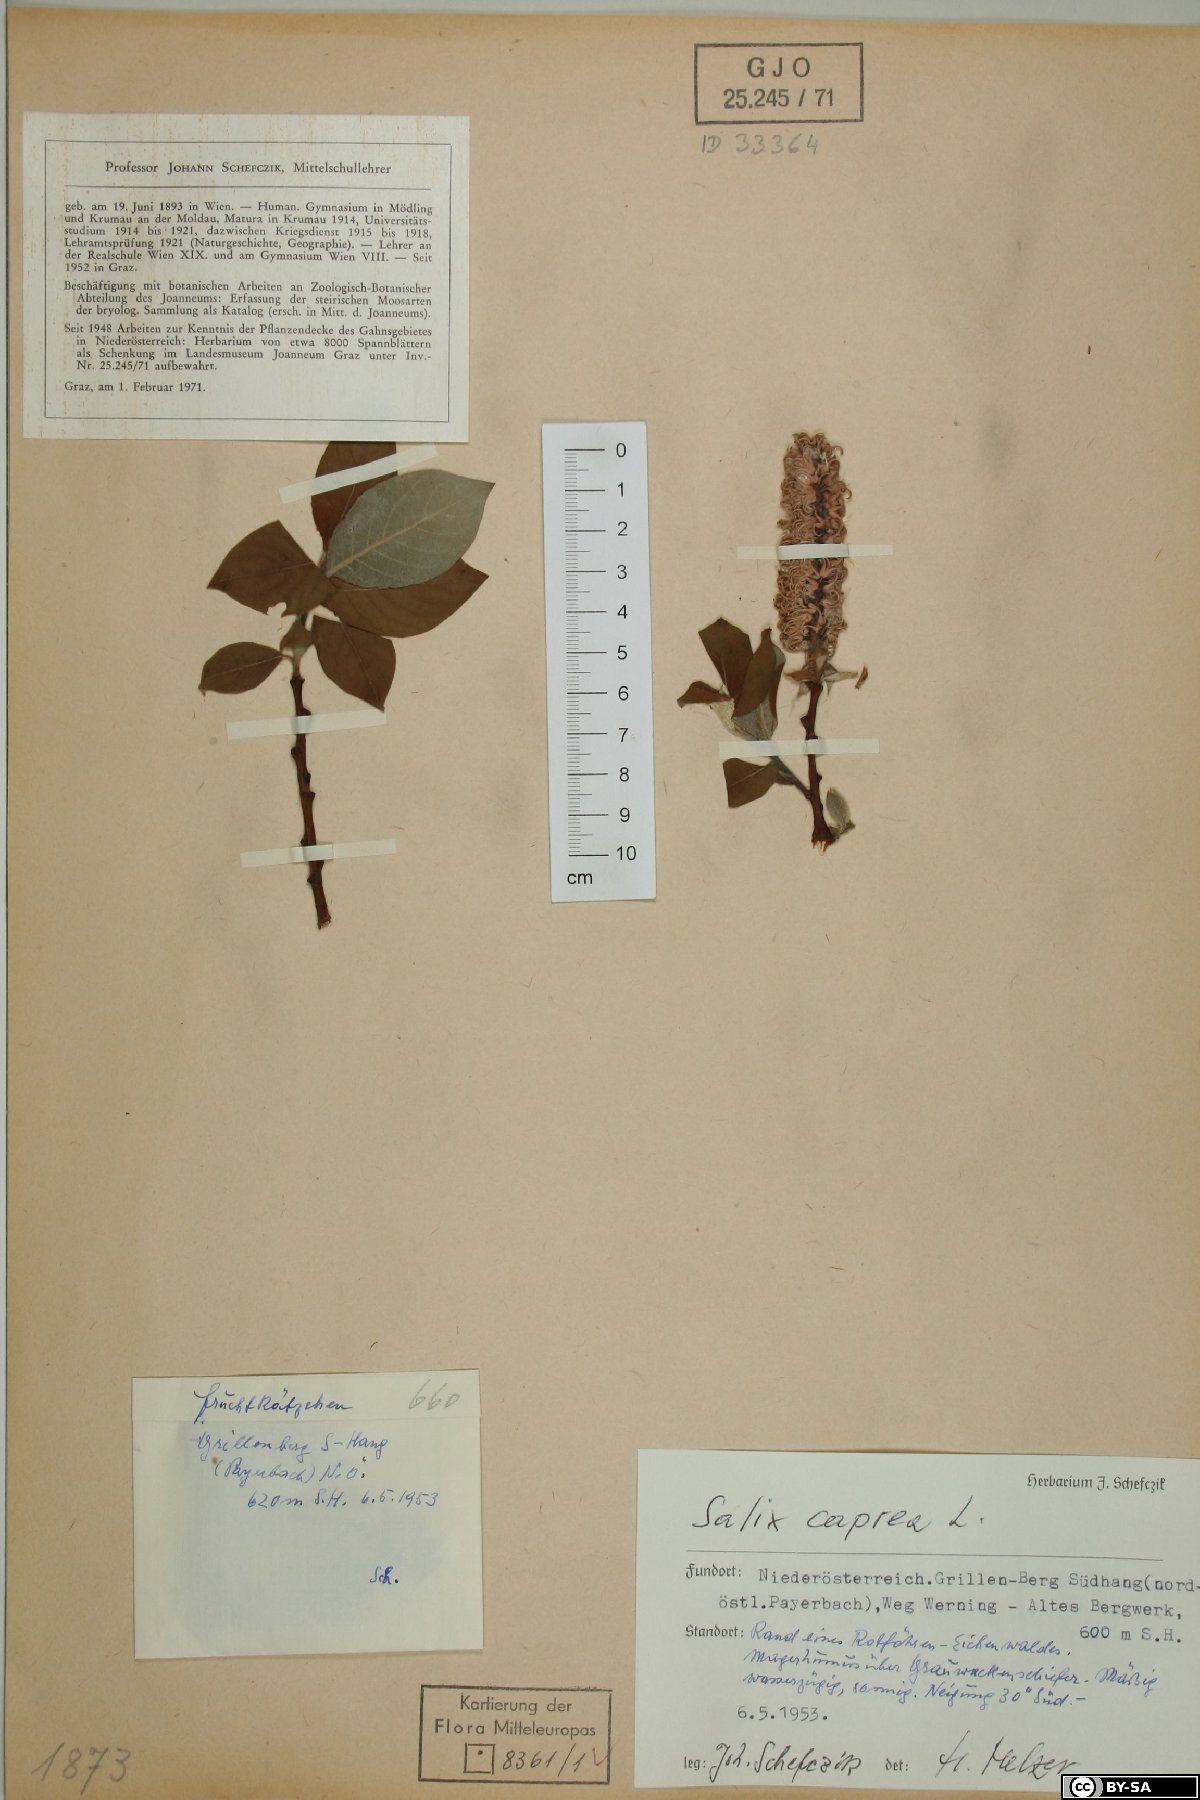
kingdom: Plantae
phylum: Tracheophyta
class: Magnoliopsida
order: Malpighiales
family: Salicaceae
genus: Salix
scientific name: Salix caprea
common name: Goat willow
